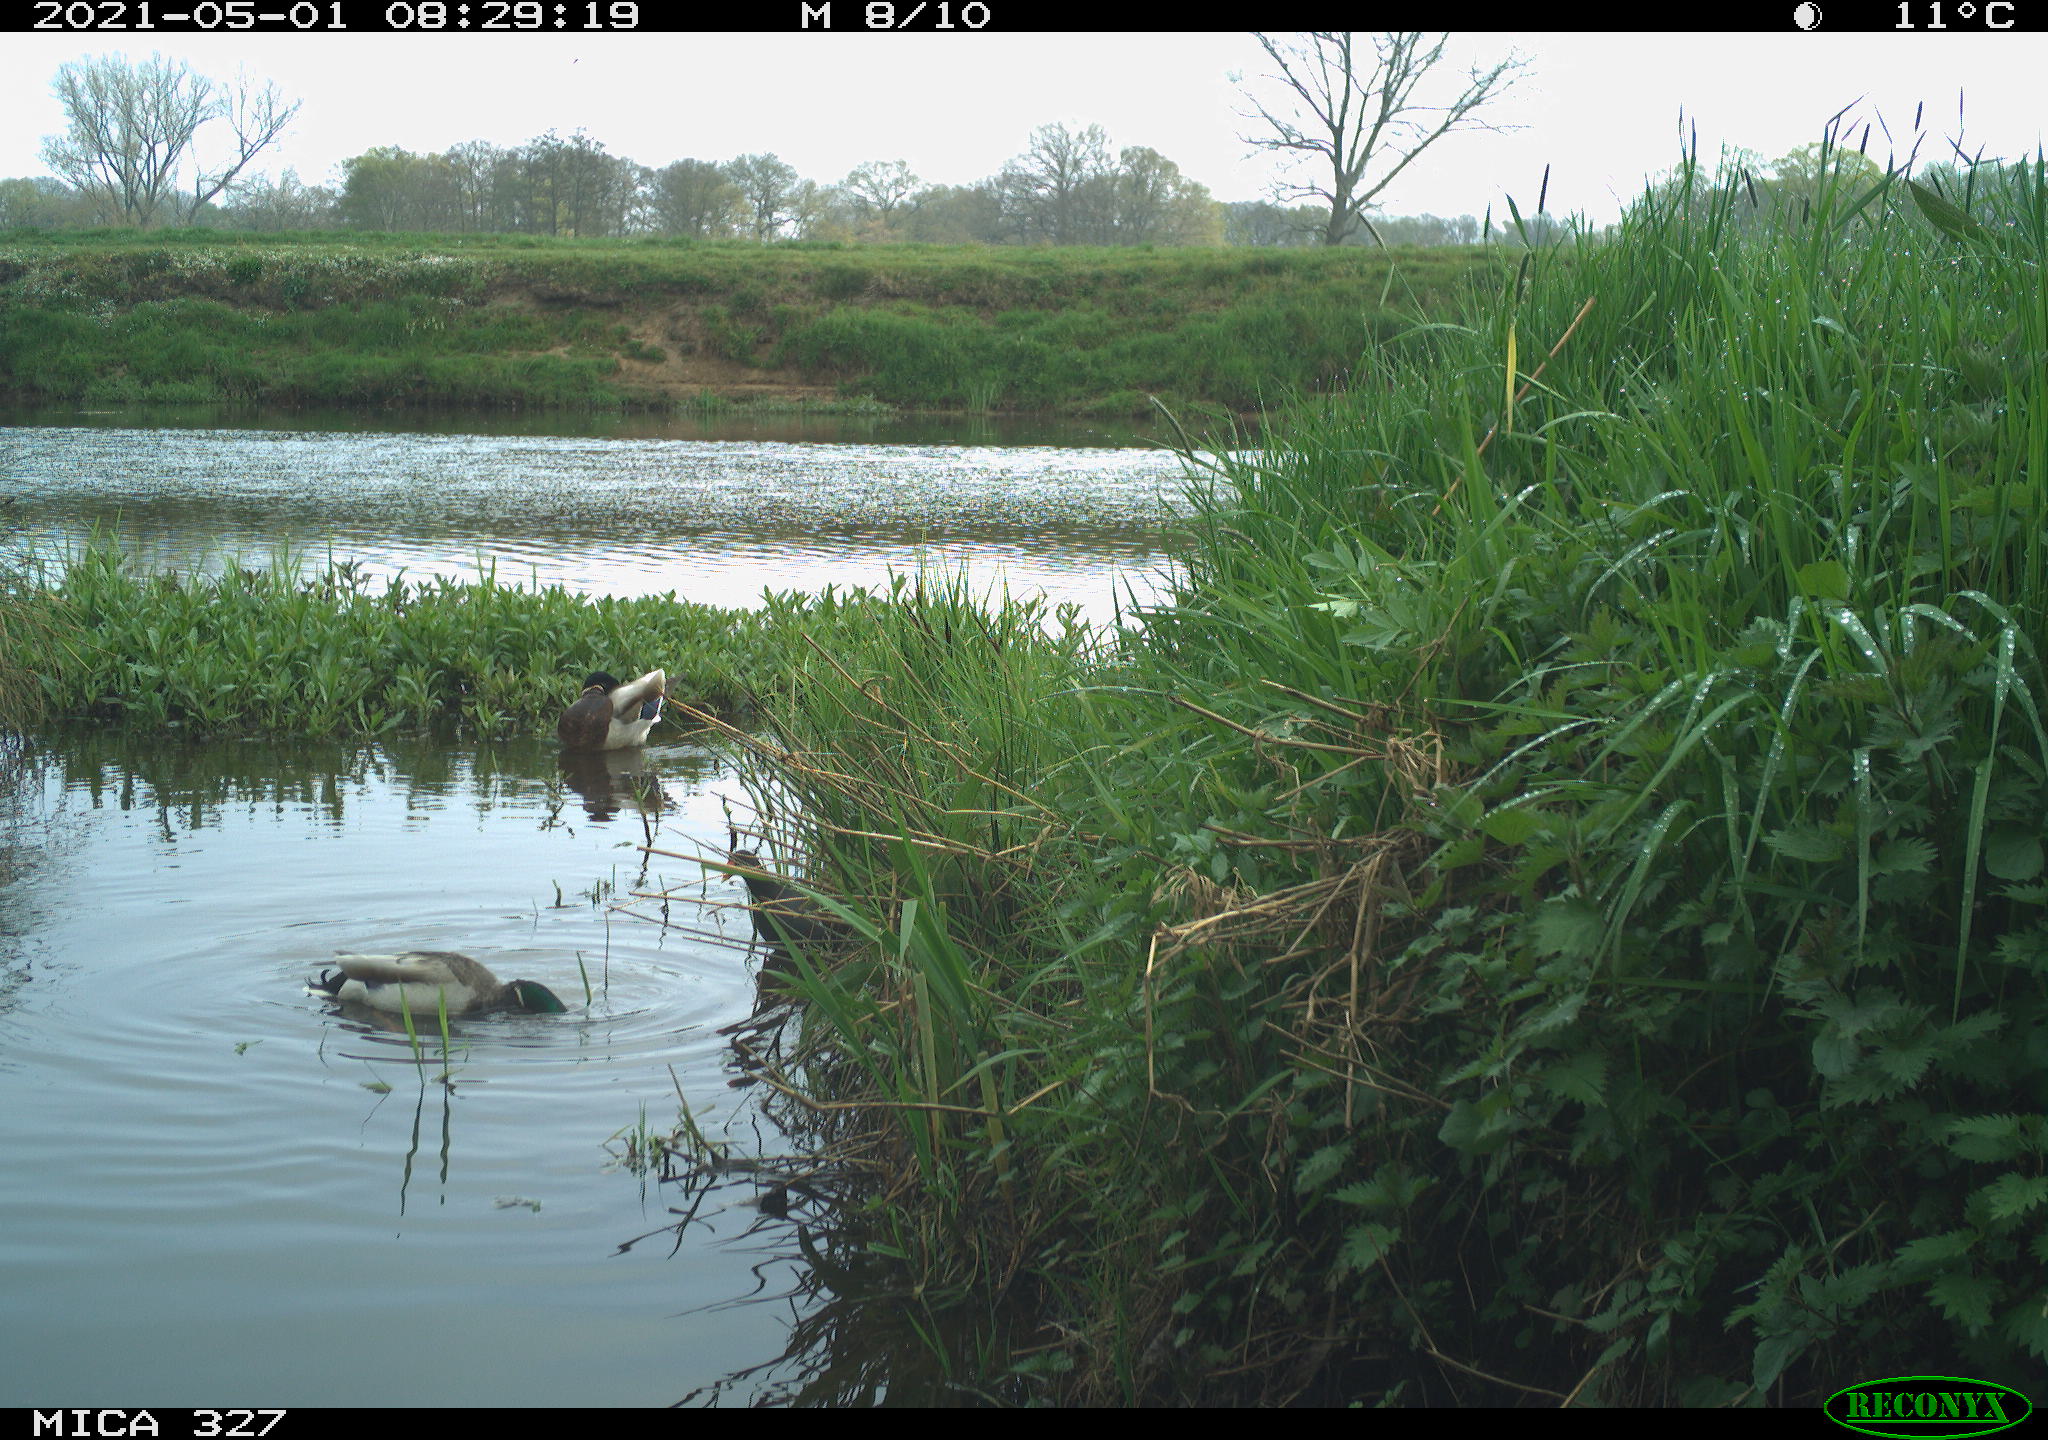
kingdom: Animalia
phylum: Chordata
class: Aves
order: Gruiformes
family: Rallidae
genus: Gallinula
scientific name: Gallinula chloropus
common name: Common moorhen
